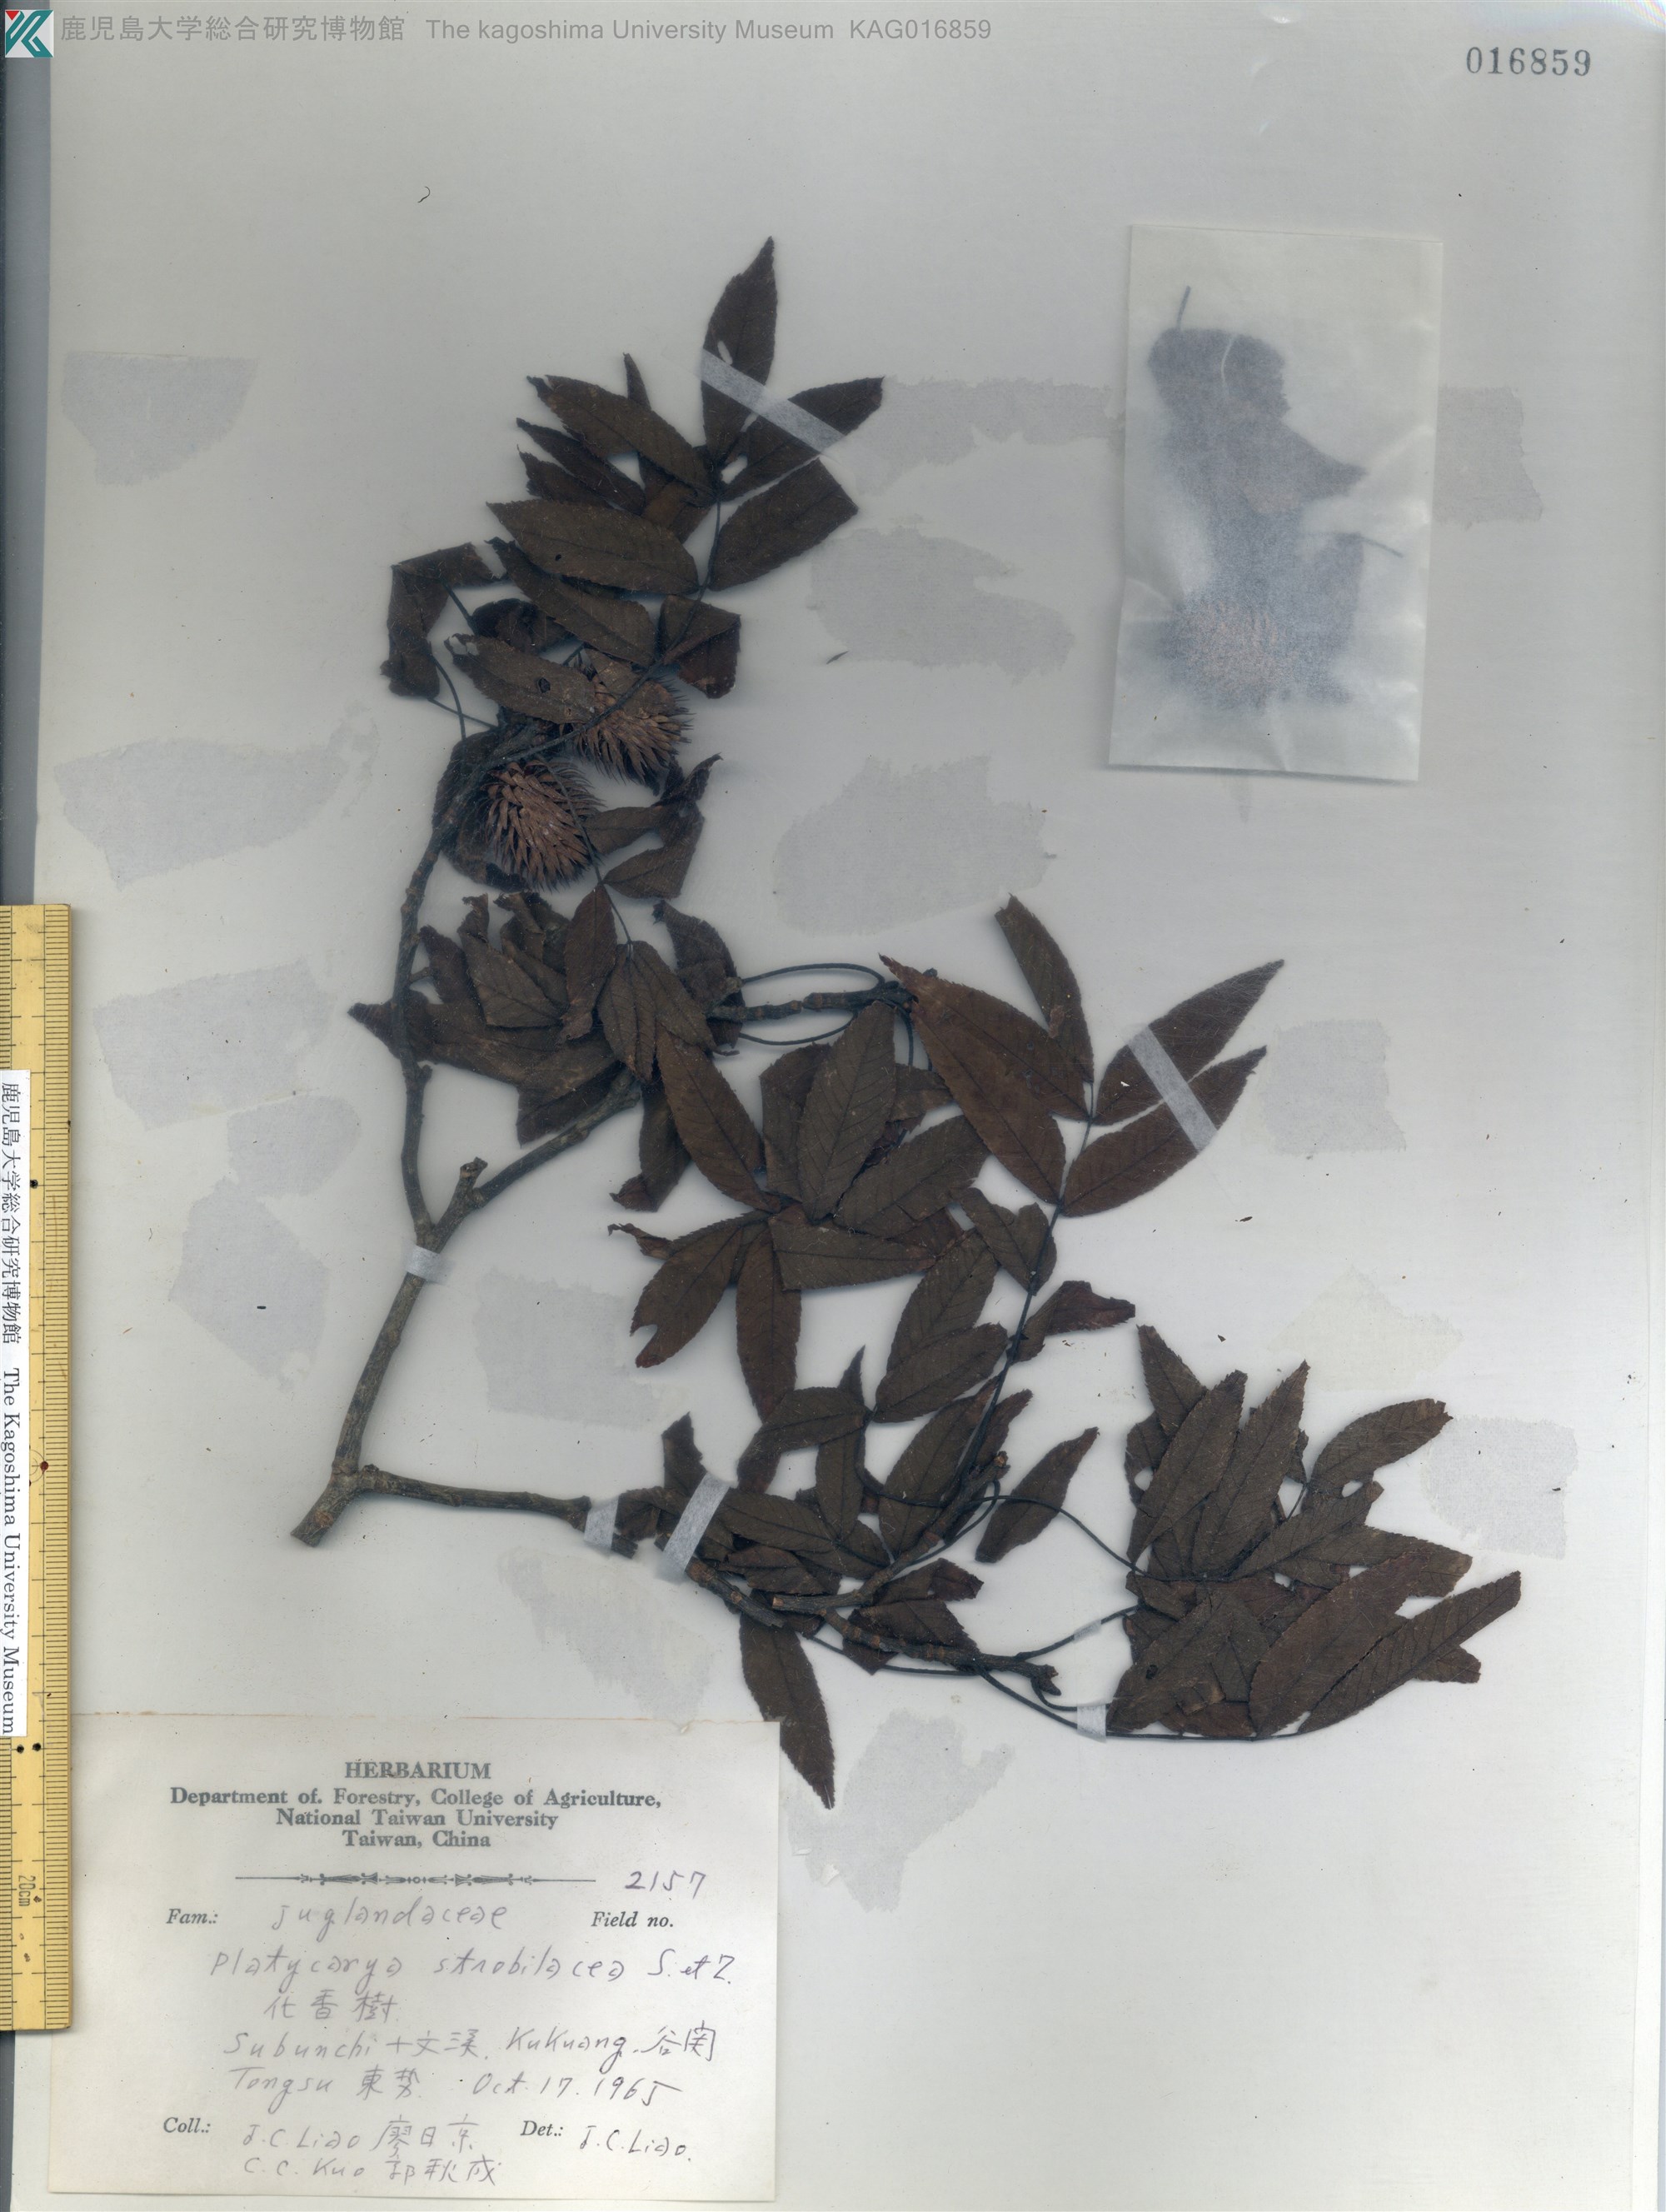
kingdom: Plantae
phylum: Tracheophyta
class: Magnoliopsida
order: Fagales
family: Juglandaceae
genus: Platycarya
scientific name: Platycarya strobilacea
